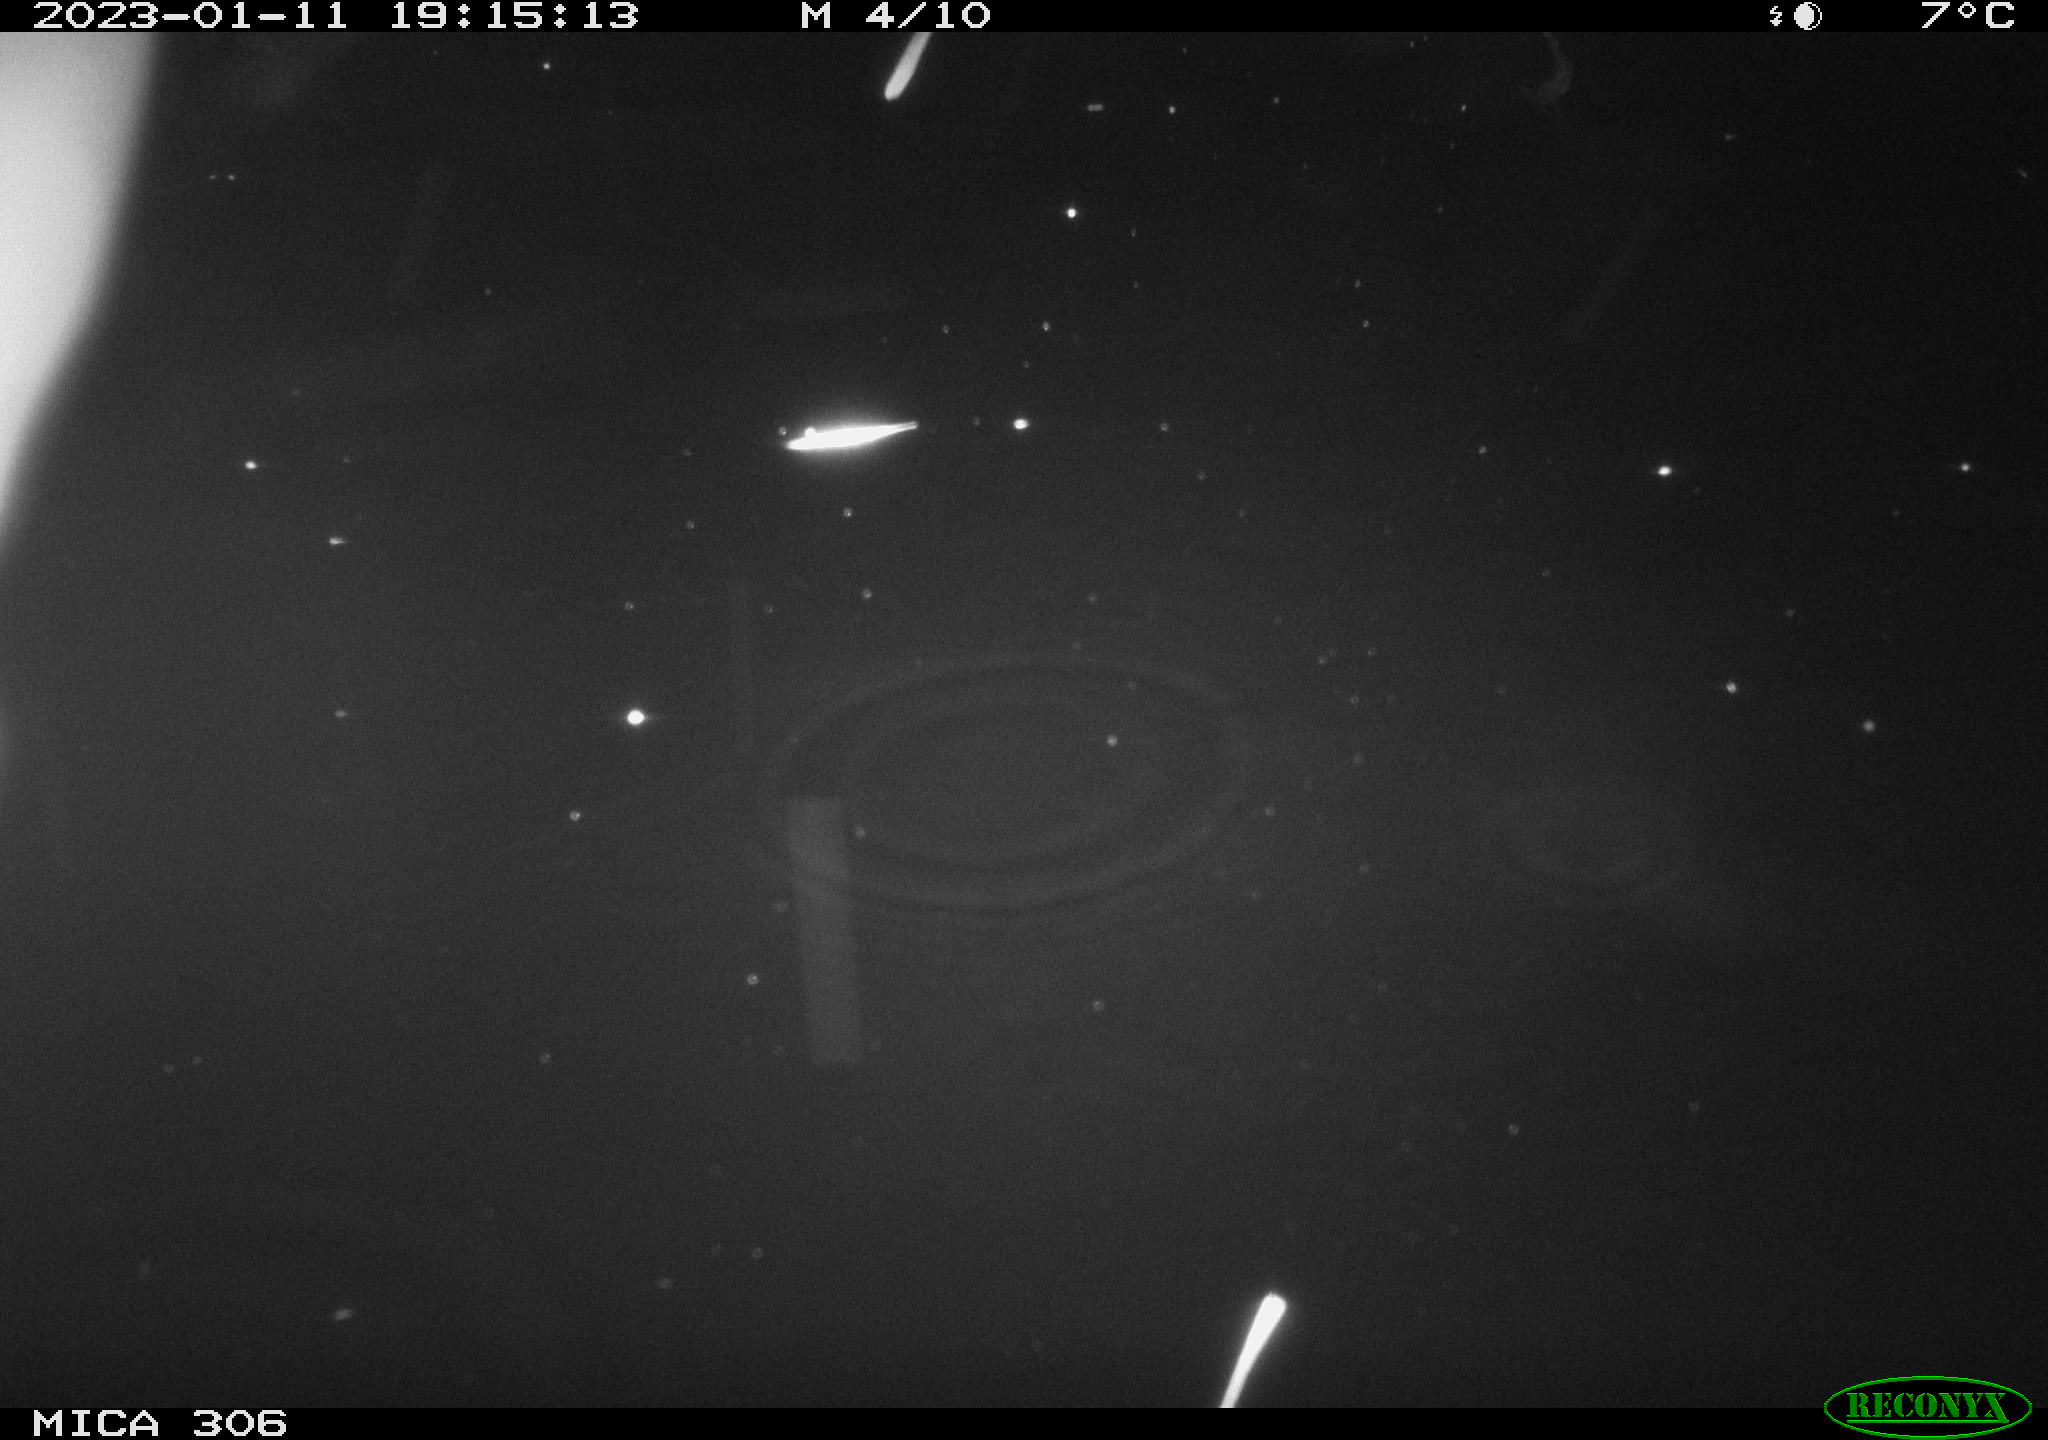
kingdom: Animalia
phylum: Chordata
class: Aves
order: Gruiformes
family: Rallidae
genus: Fulica
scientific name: Fulica atra
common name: Eurasian coot
